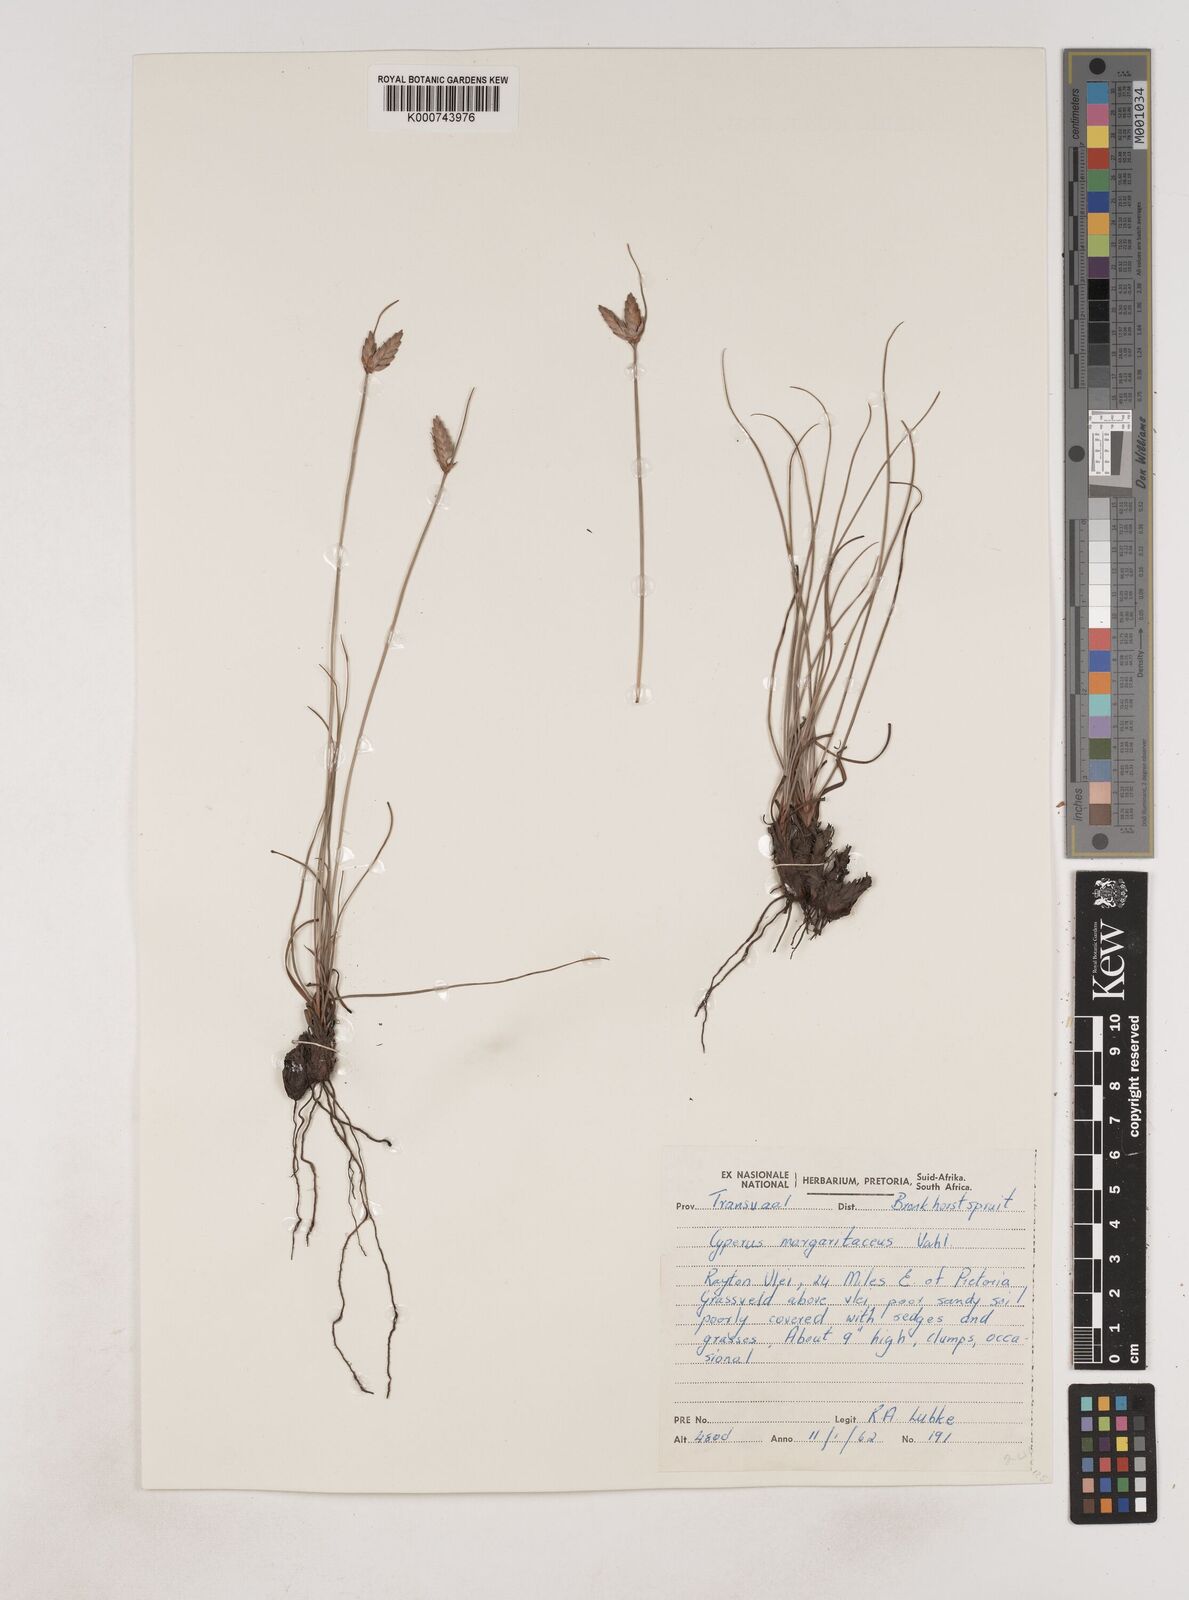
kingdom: Plantae
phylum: Tracheophyta
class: Liliopsida
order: Poales
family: Cyperaceae
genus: Cyperus
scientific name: Cyperus margaritaceus
